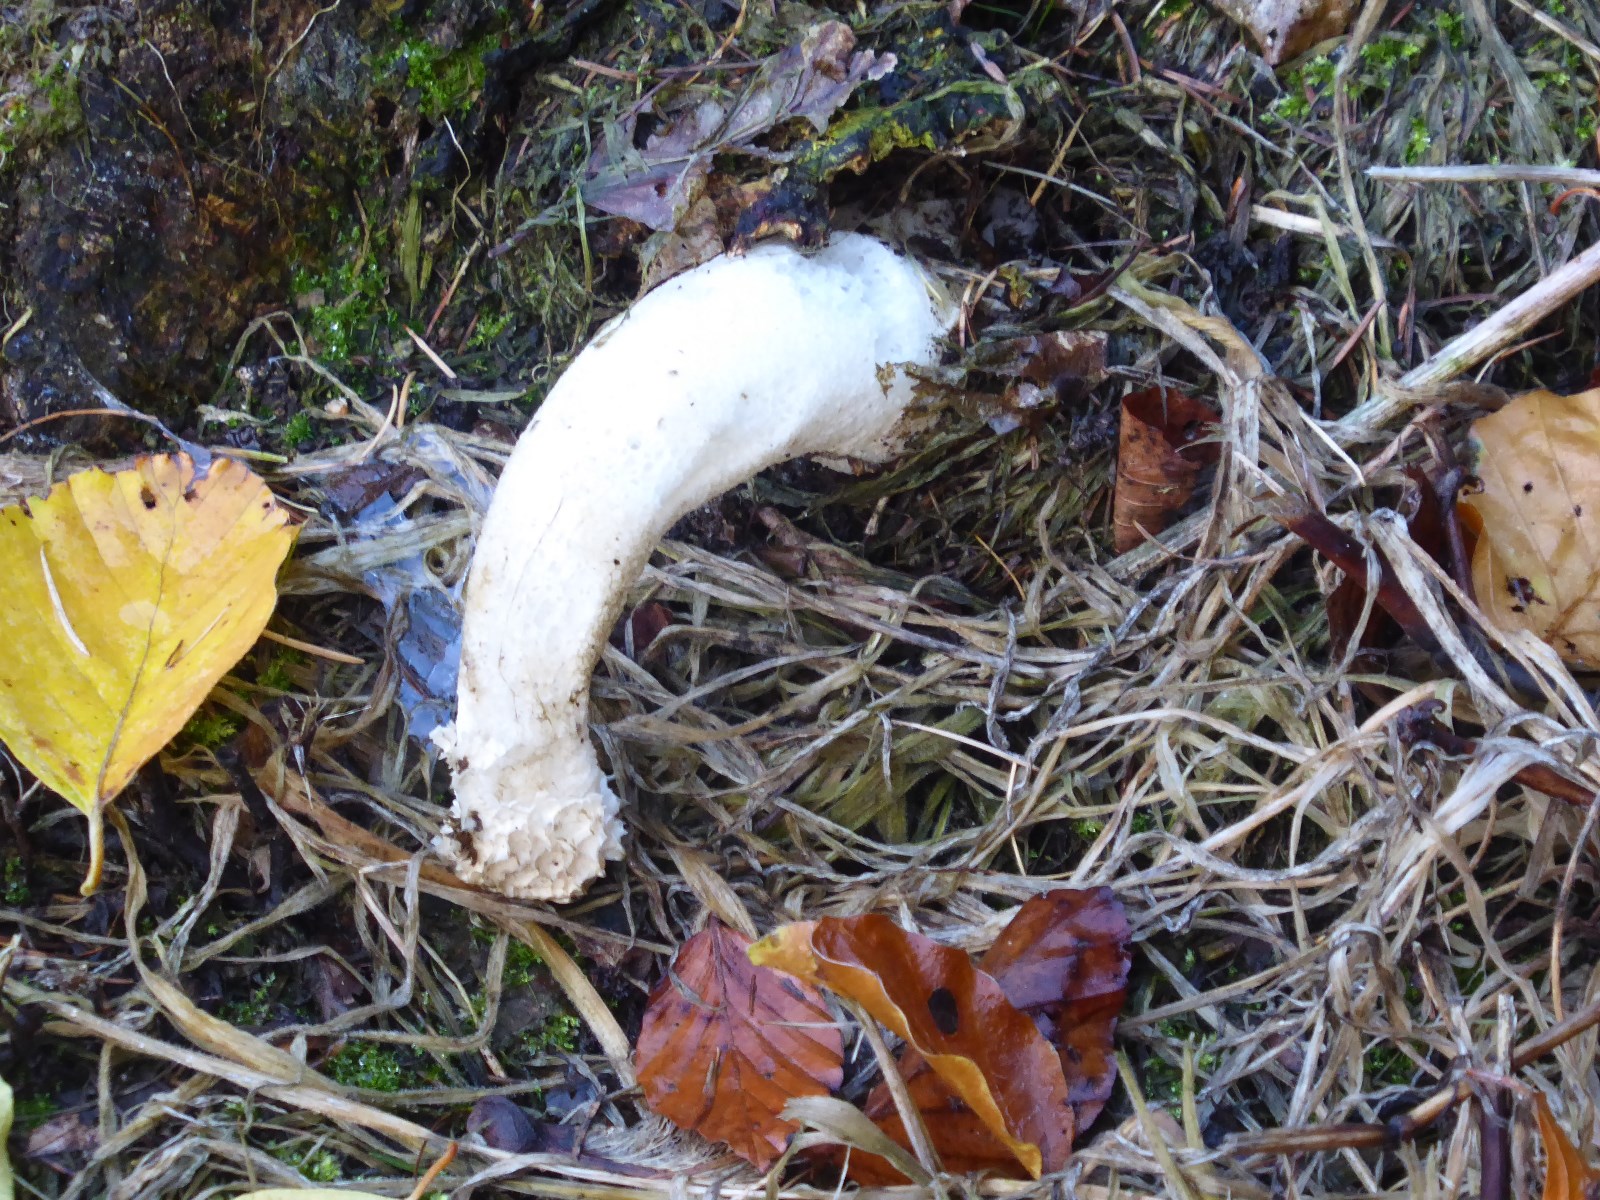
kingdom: Fungi
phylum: Basidiomycota
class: Agaricomycetes
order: Phallales
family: Phallaceae
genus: Phallus
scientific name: Phallus impudicus
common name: almindelig stinksvamp
